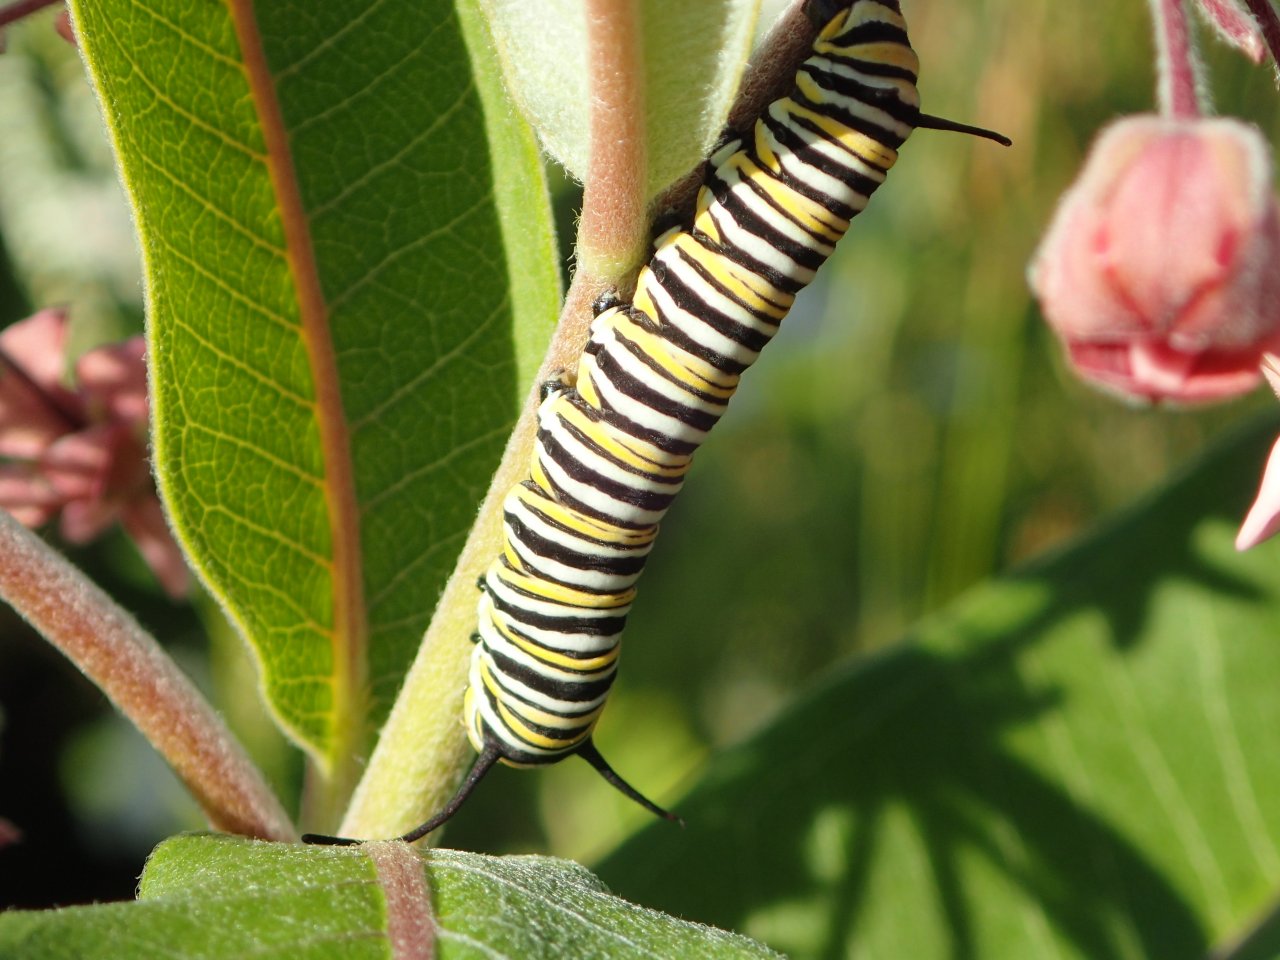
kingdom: Animalia
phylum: Arthropoda
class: Insecta
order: Lepidoptera
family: Nymphalidae
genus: Danaus
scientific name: Danaus plexippus
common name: Monarch
